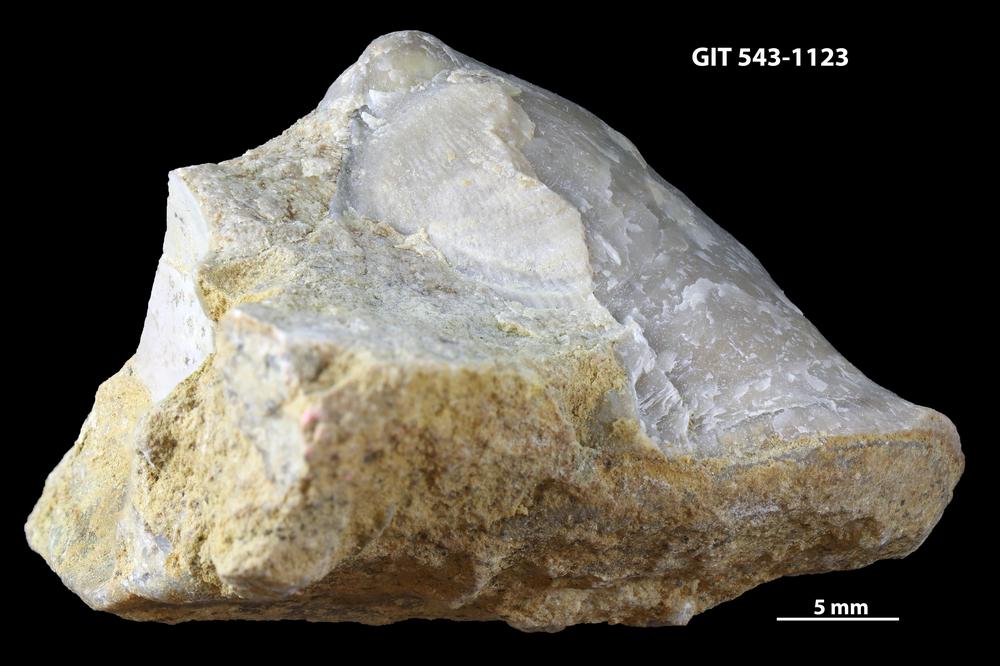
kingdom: Animalia
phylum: Brachiopoda
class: Rhynchonellata
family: Clitambonitidae
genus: Clinambon
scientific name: Clinambon anomalus
